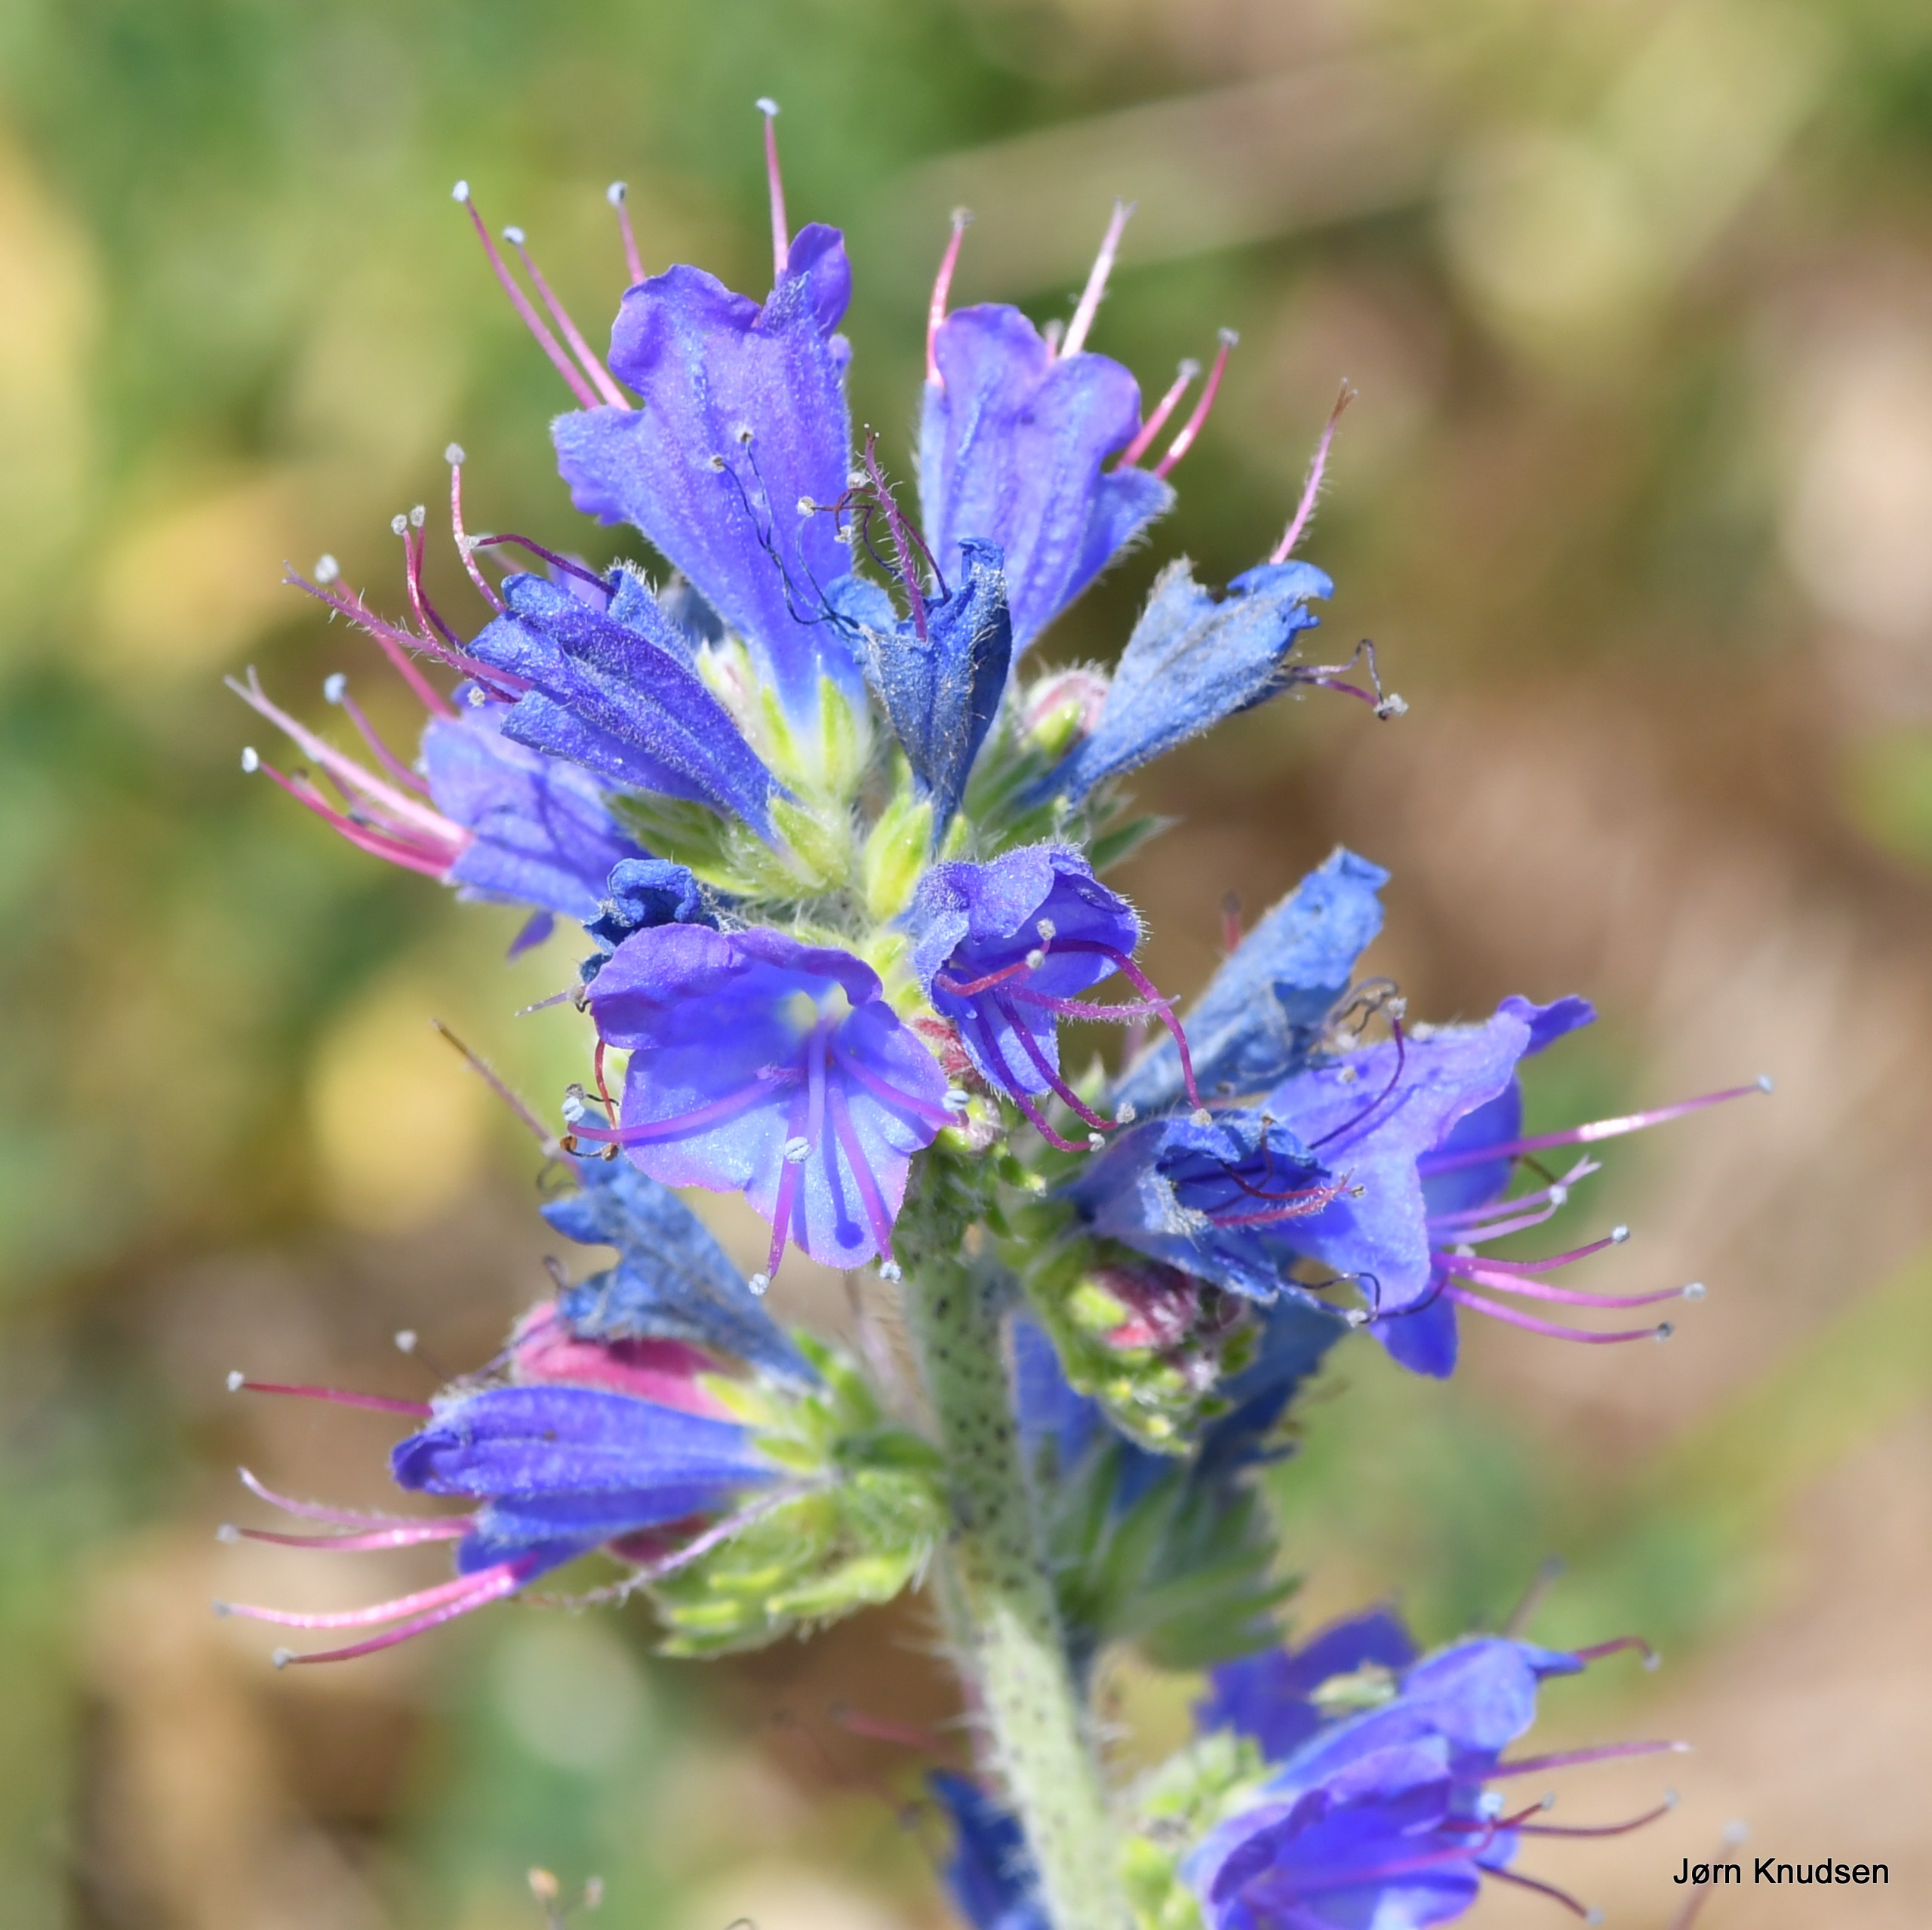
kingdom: Plantae
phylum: Tracheophyta
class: Magnoliopsida
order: Boraginales
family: Boraginaceae
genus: Echium
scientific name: Echium vulgare
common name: Slangehoved
